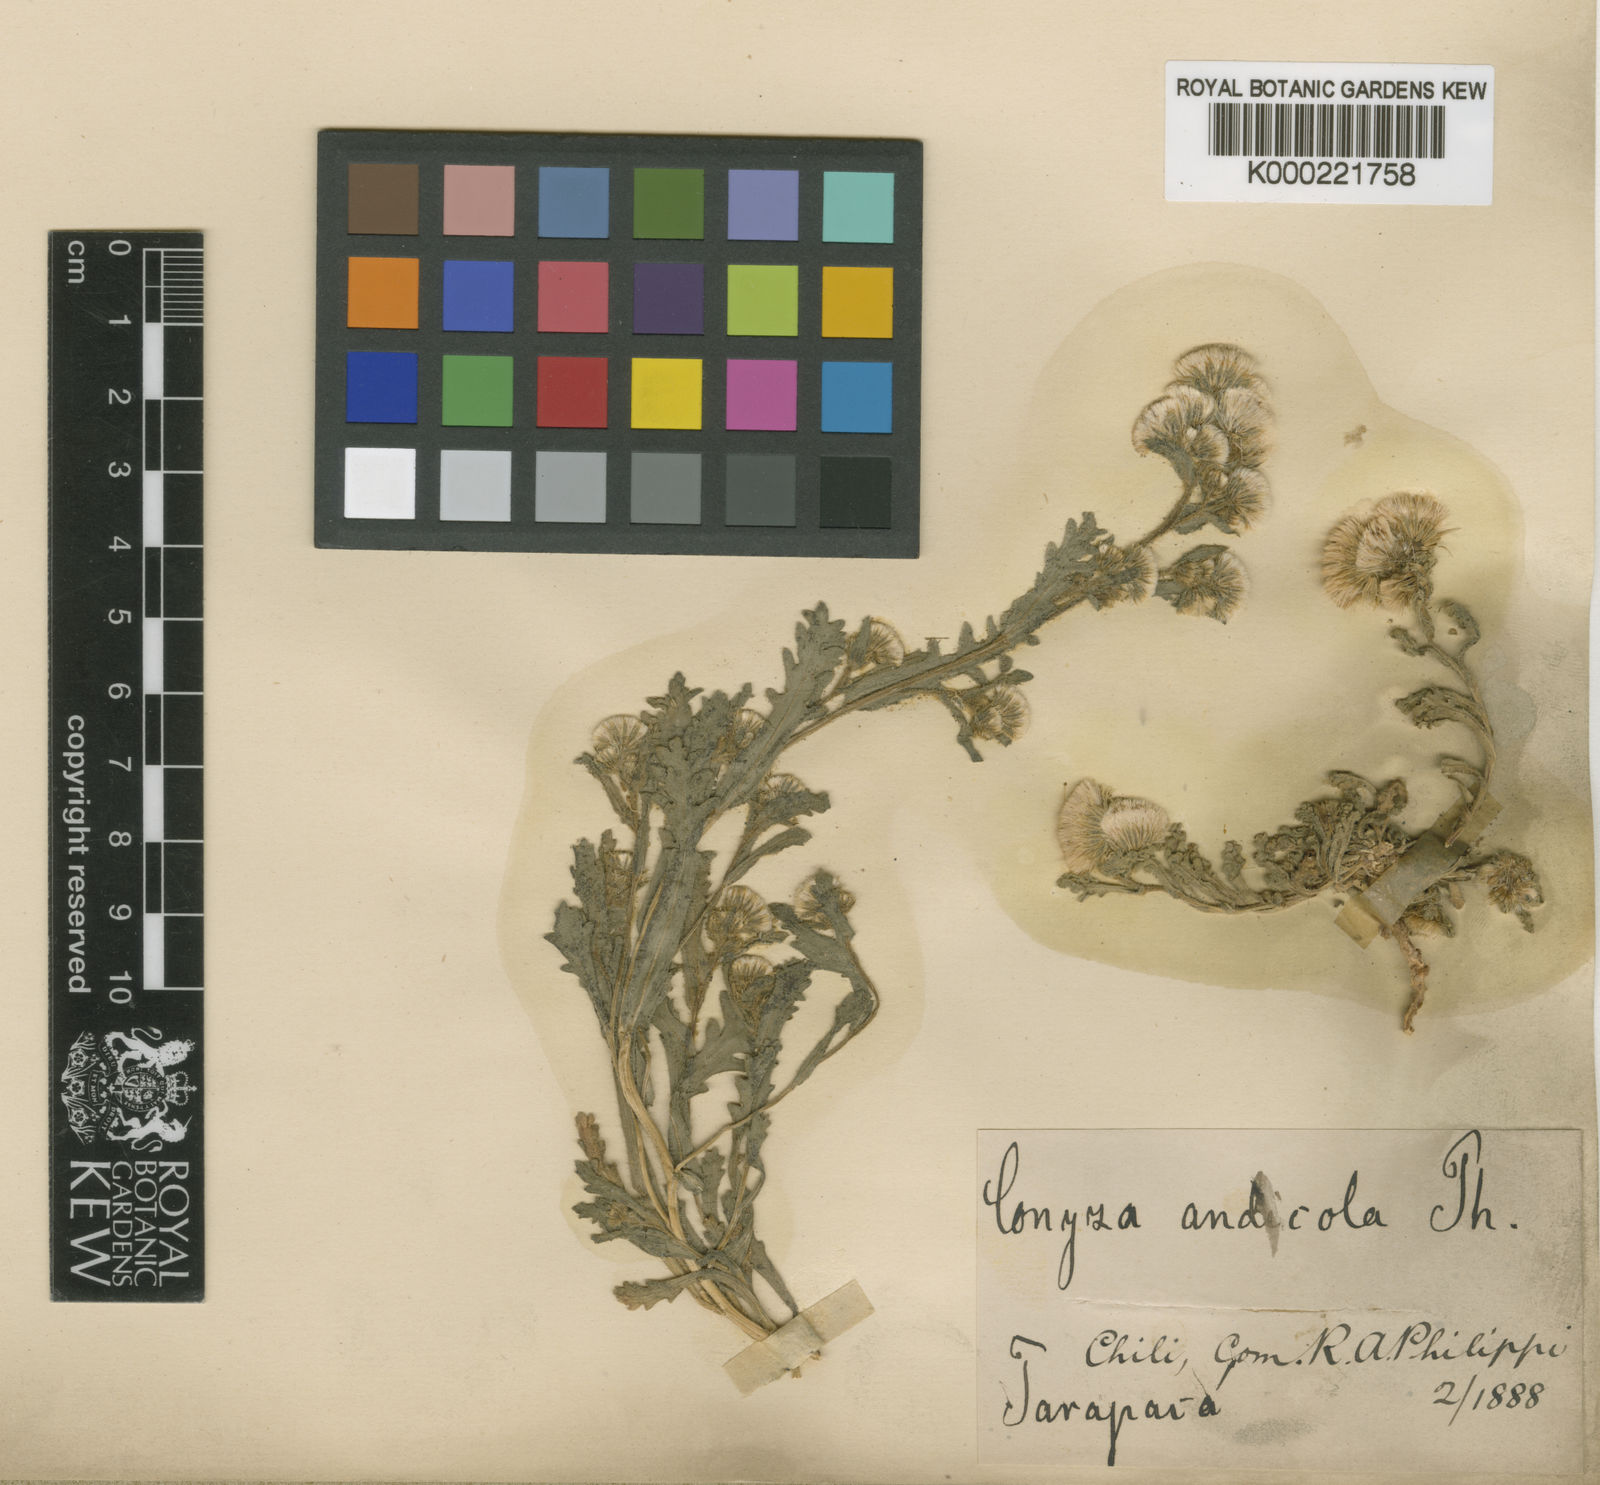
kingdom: Plantae
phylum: Tracheophyta
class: Magnoliopsida
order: Asterales
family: Asteraceae
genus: Laennecia
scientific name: Laennecia
